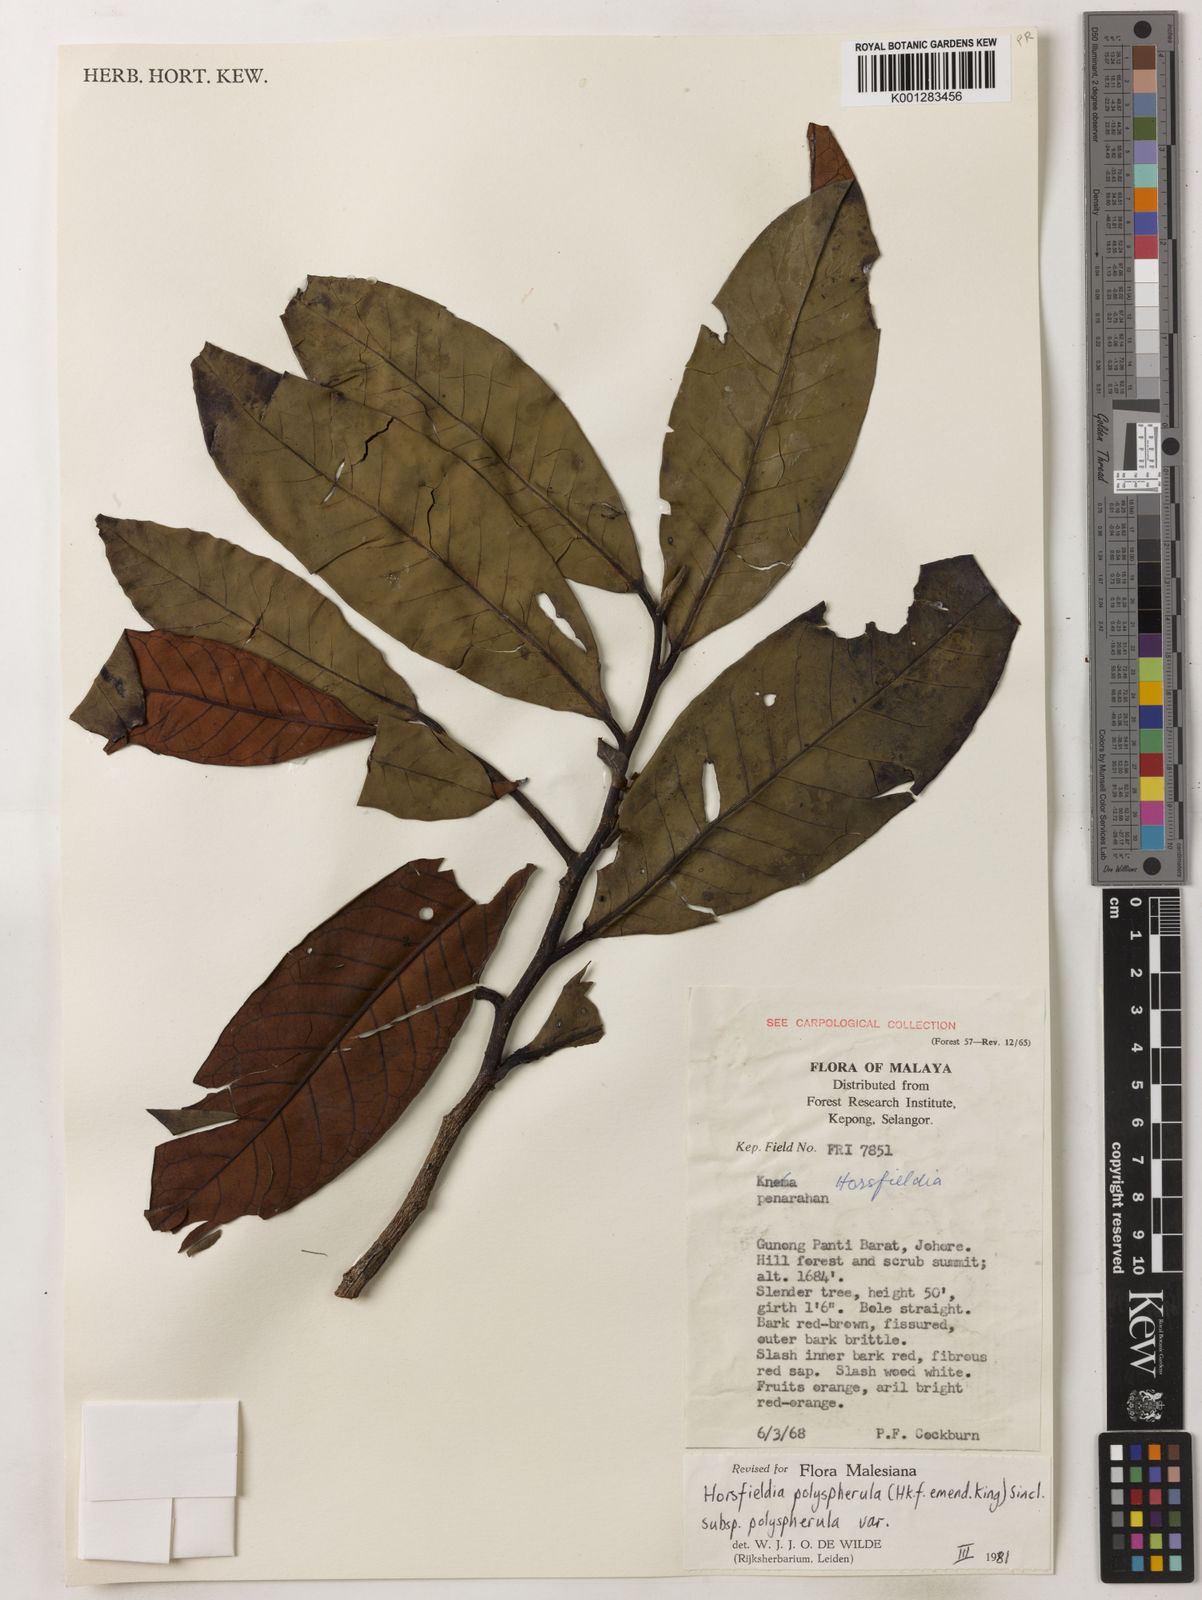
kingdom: Plantae
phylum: Tracheophyta
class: Magnoliopsida
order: Magnoliales
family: Myristicaceae
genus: Horsfieldia
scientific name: Horsfieldia polyspherula
